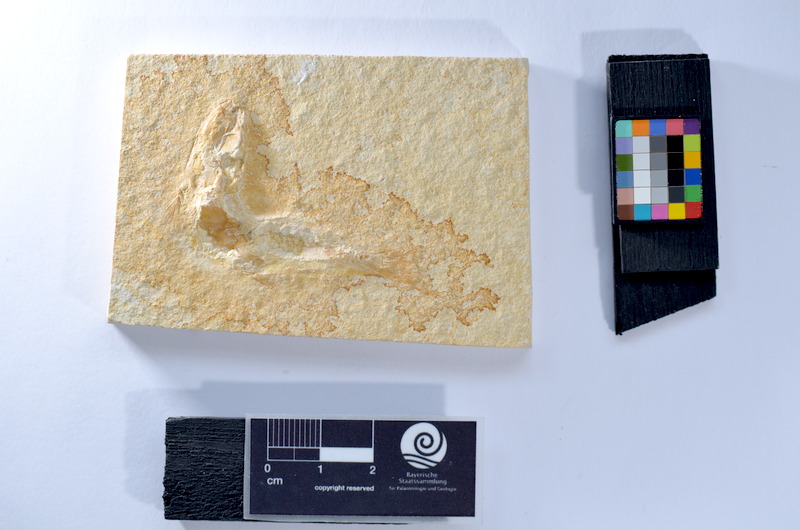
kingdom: Animalia
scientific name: Animalia
